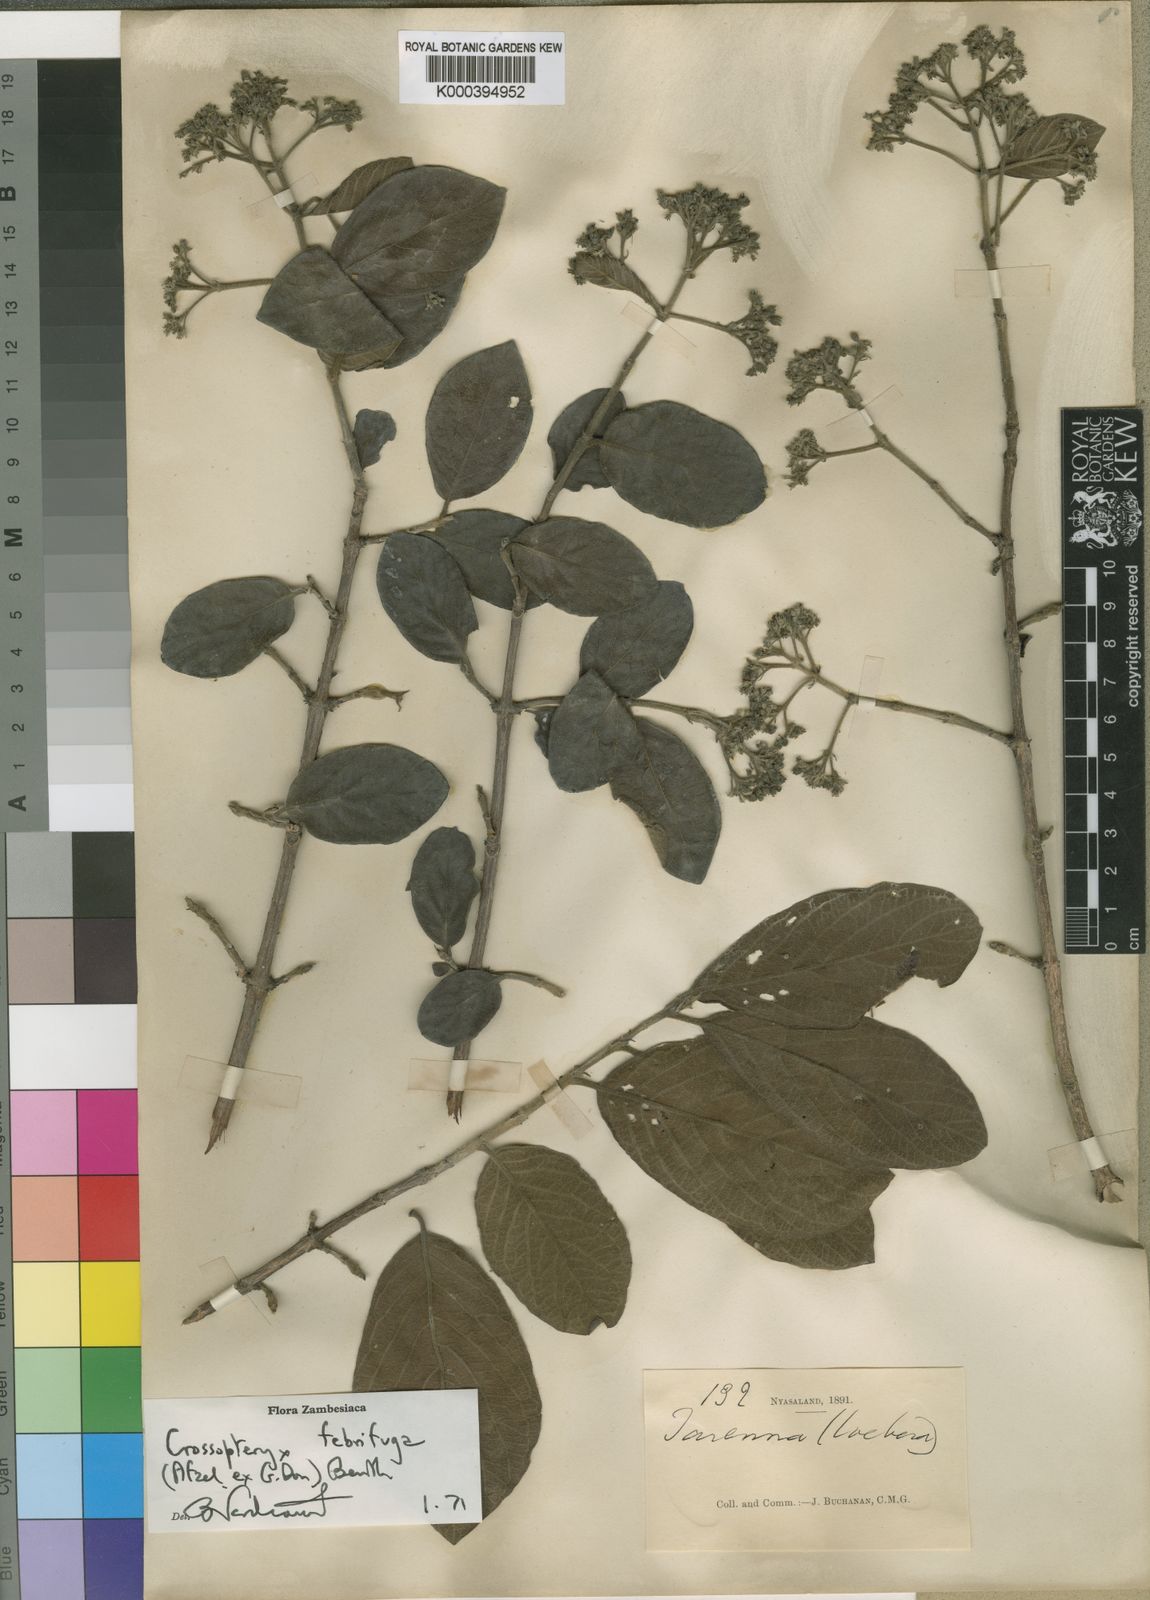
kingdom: Plantae
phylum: Tracheophyta
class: Magnoliopsida
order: Gentianales
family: Rubiaceae
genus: Crossopteryx
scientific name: Crossopteryx febrifuga
